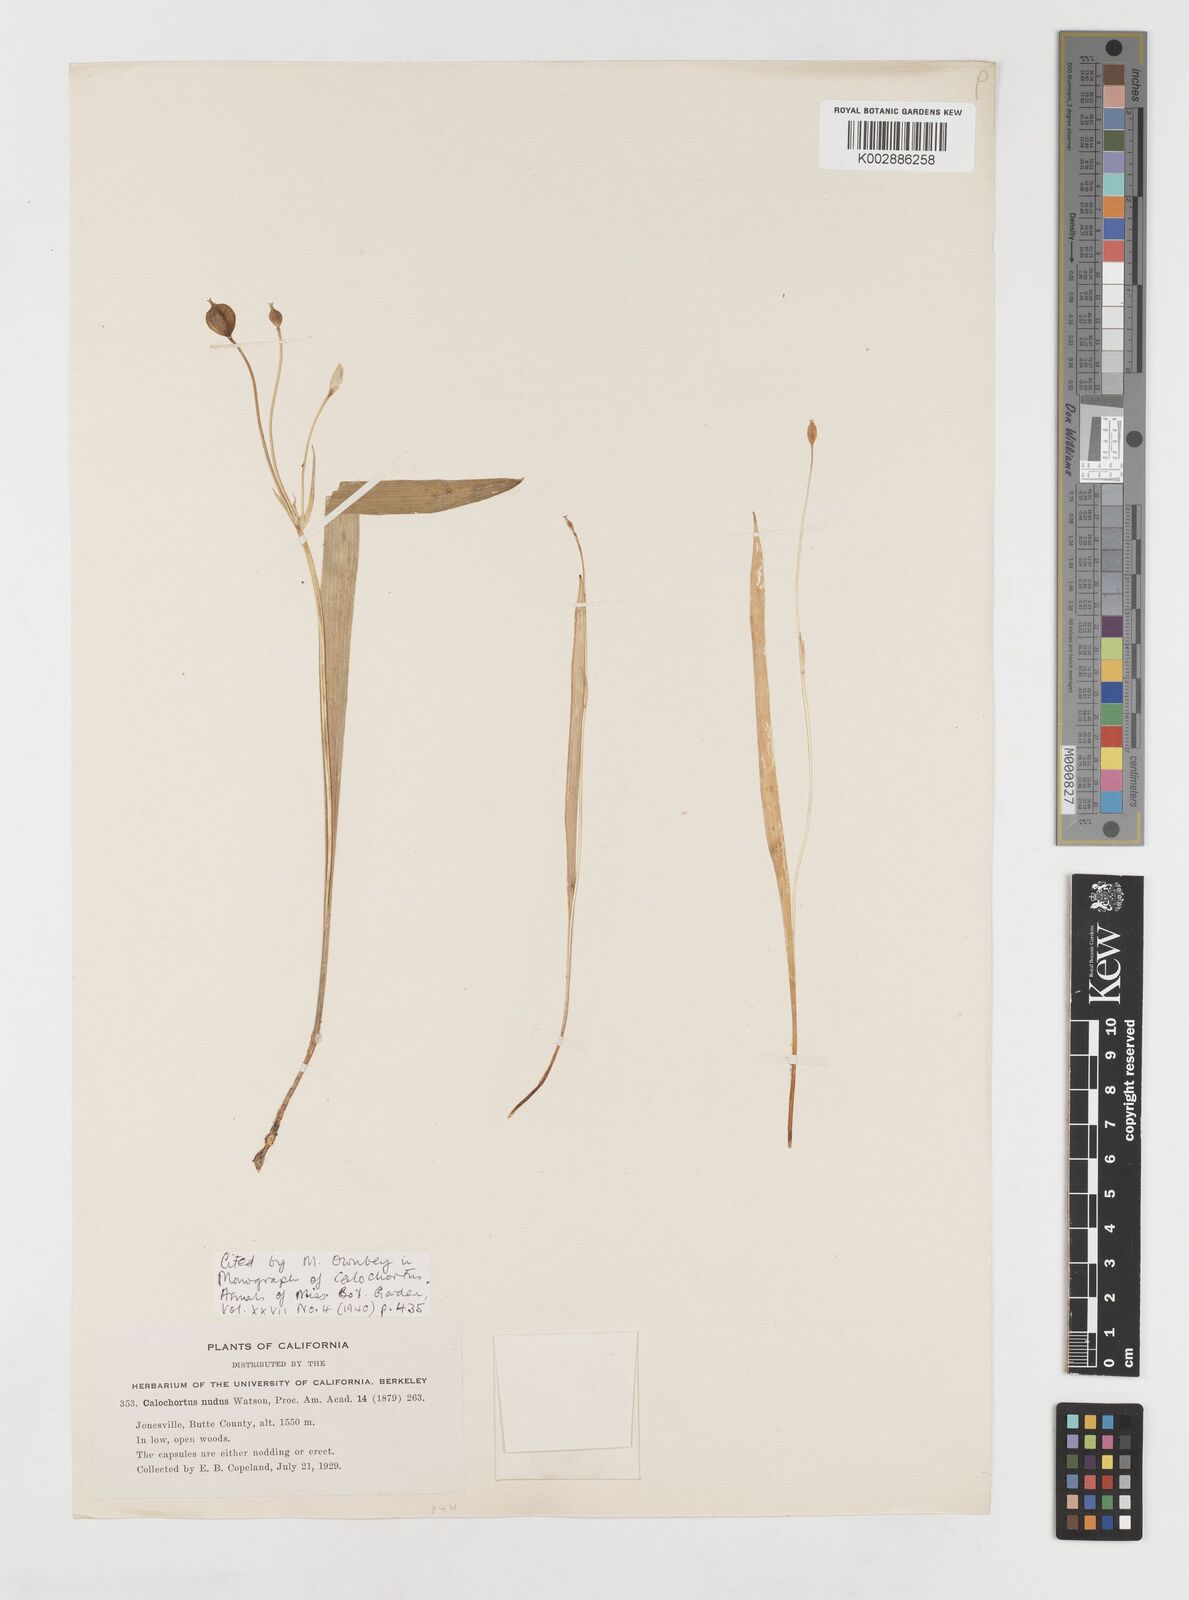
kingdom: Plantae
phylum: Tracheophyta
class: Liliopsida
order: Liliales
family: Liliaceae
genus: Calochortus
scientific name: Calochortus nudus
